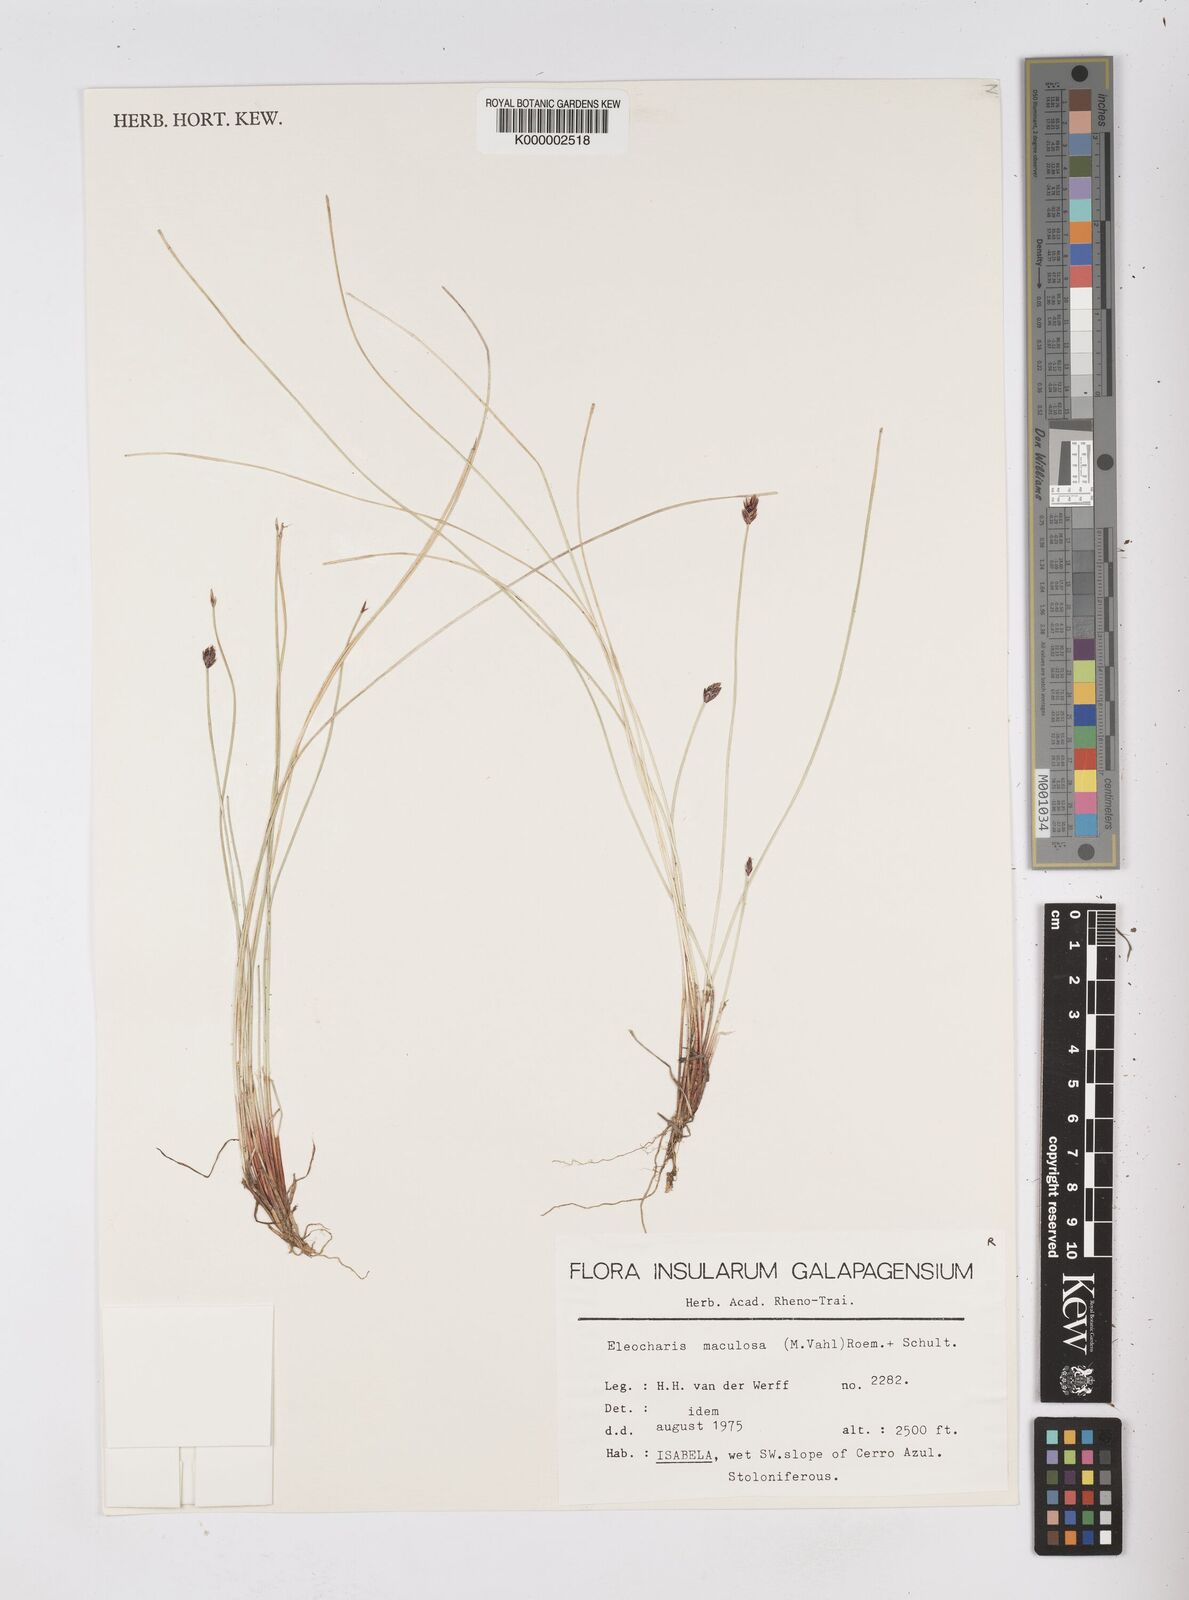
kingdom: Plantae
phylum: Tracheophyta
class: Liliopsida
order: Poales
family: Cyperaceae
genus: Eleocharis
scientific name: Eleocharis maculosa
